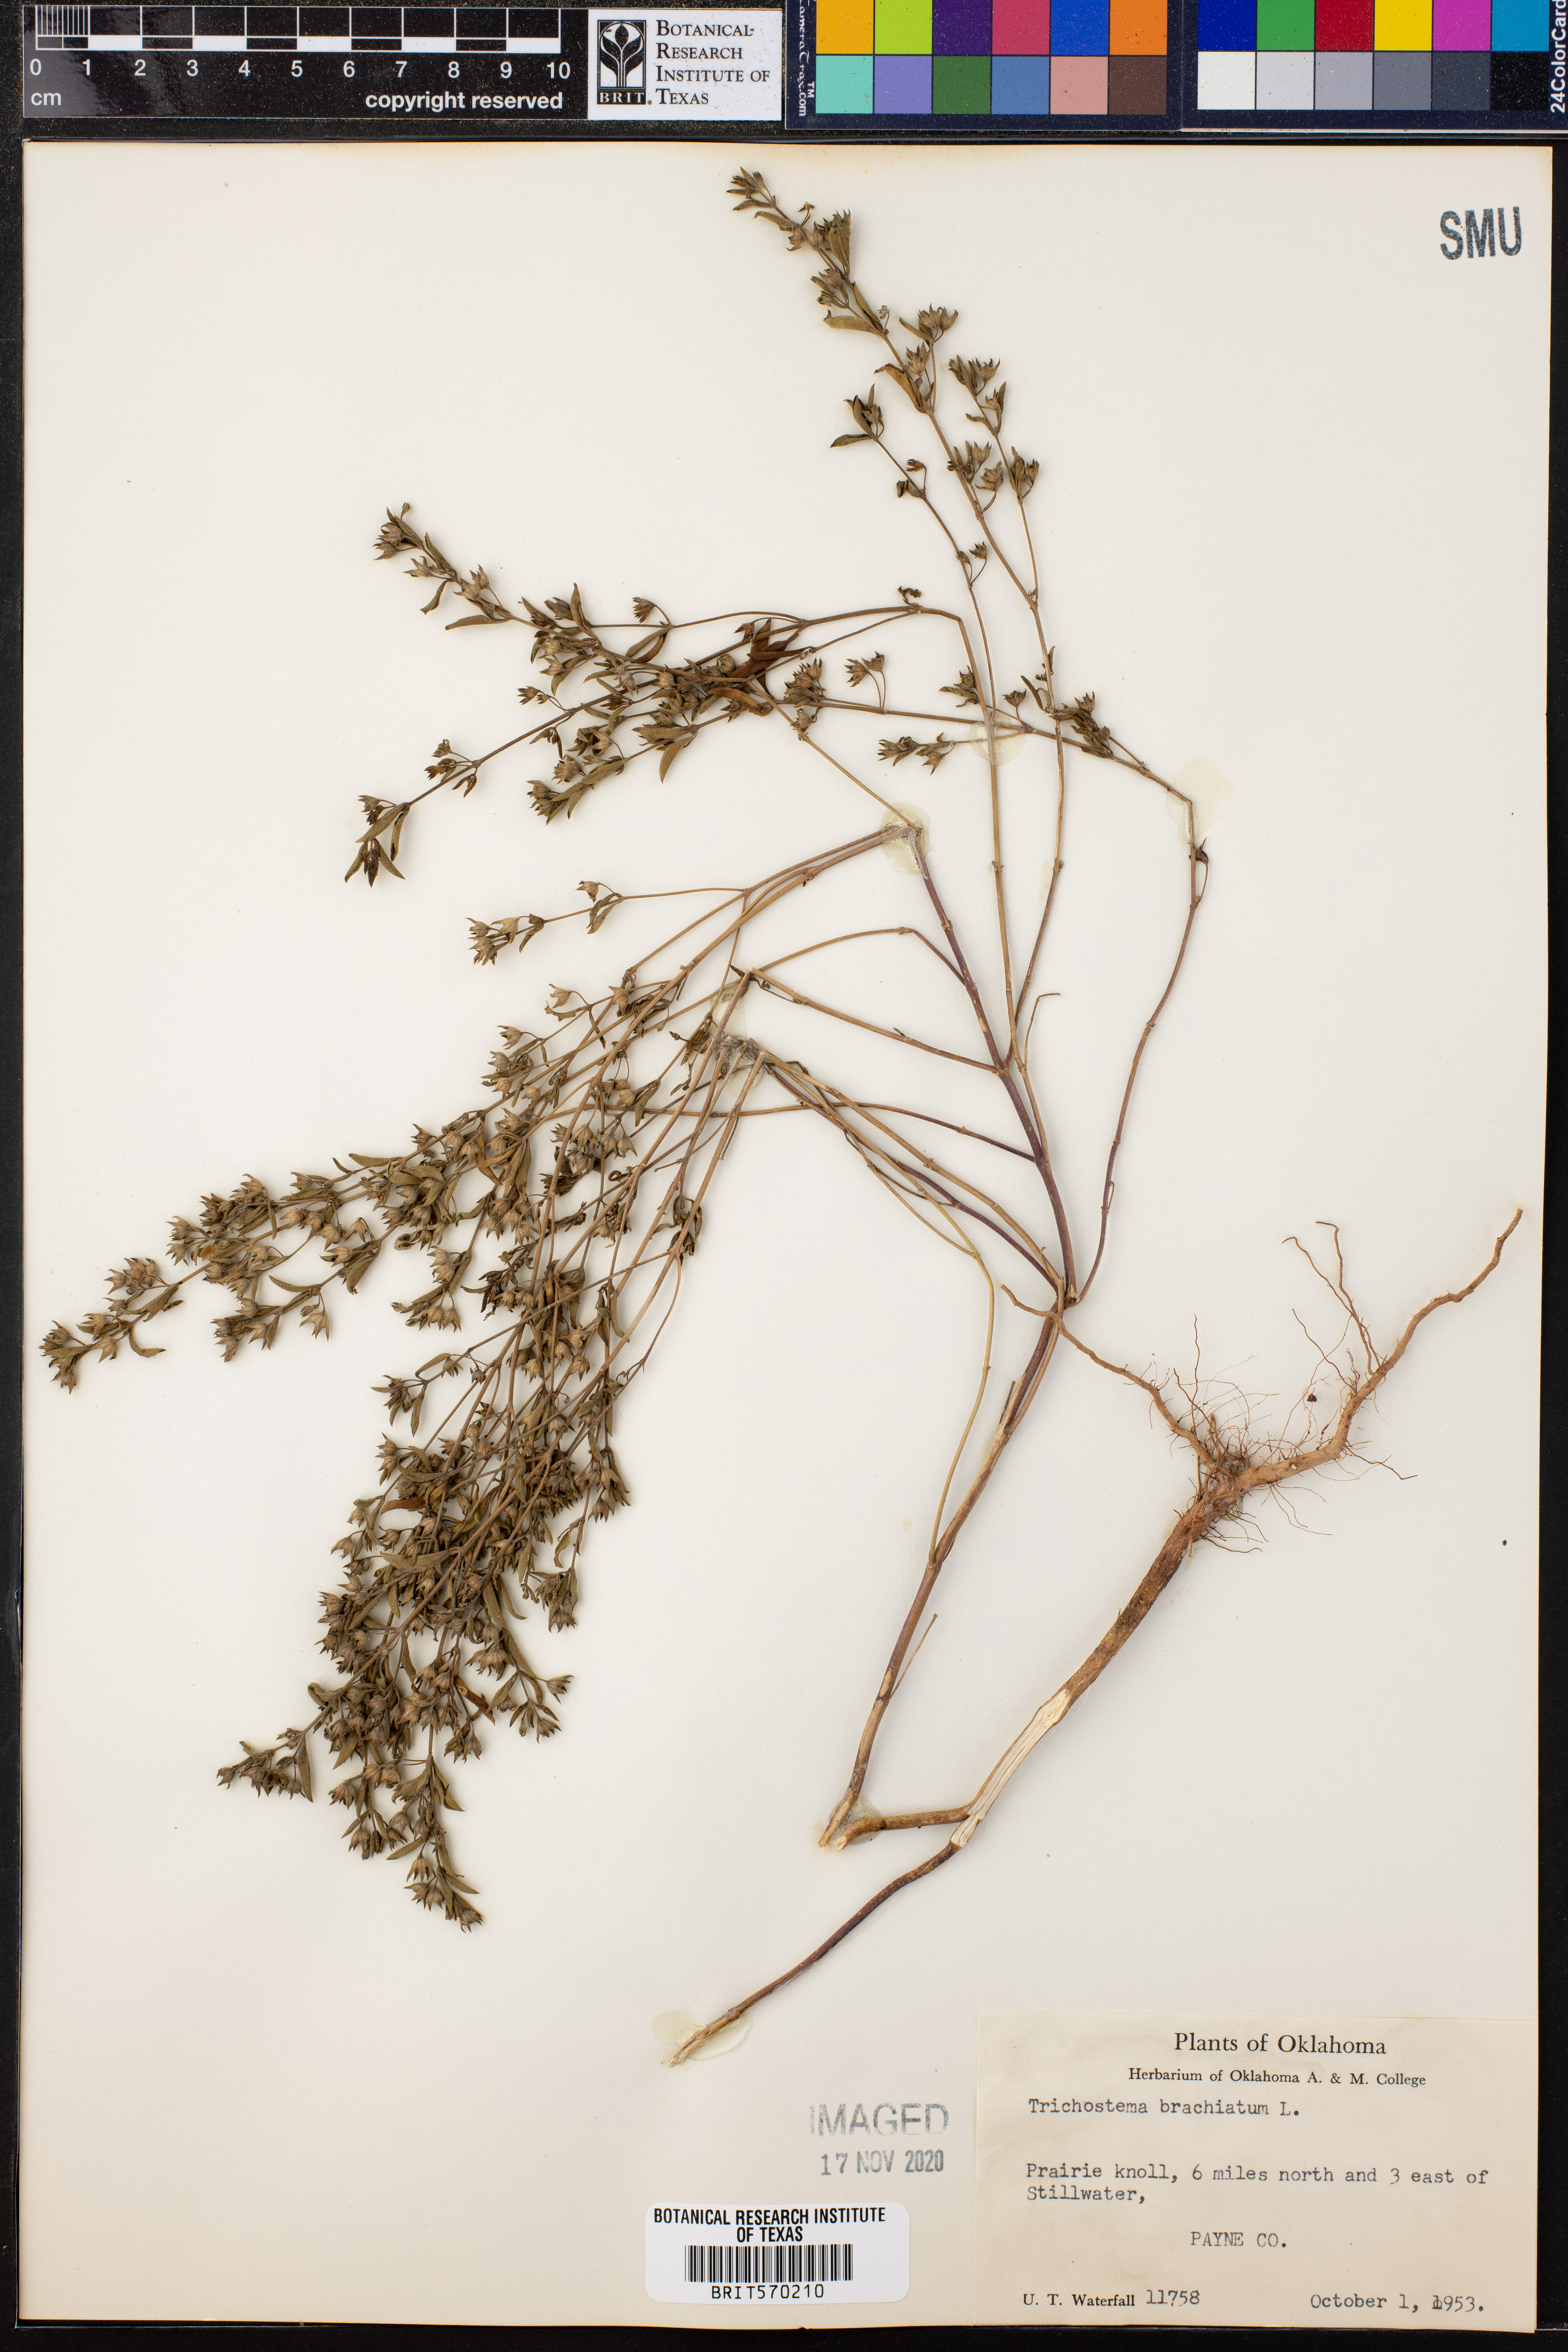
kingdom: Plantae
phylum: Tracheophyta
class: Magnoliopsida
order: Lamiales
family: Lamiaceae
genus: Trichostema
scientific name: Trichostema brachiatum
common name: False pennyroyal
